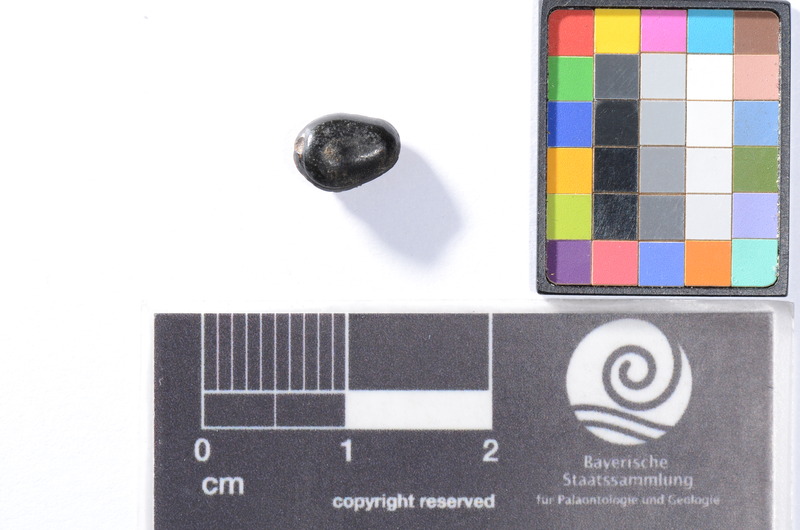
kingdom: Animalia
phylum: Chordata
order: Anguilliformes
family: Phyllodontidae
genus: Phyllodus
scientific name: Phyllodus
